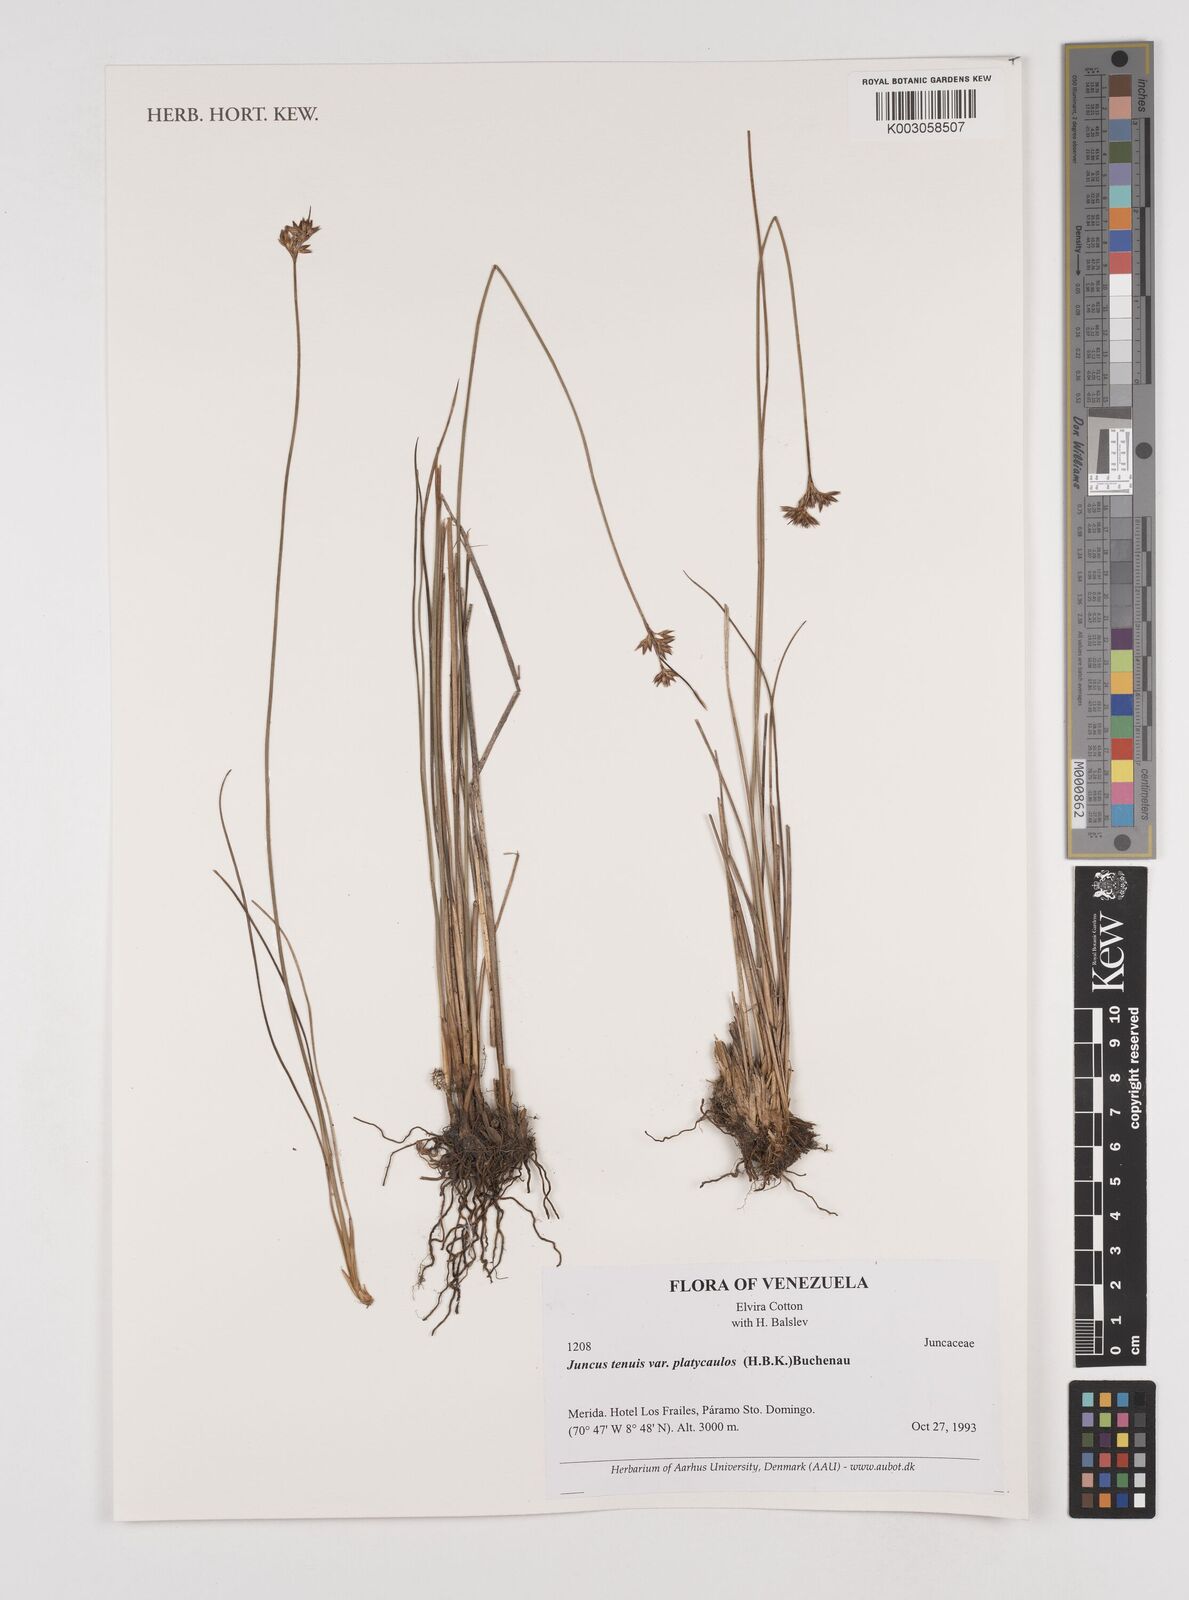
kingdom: Plantae
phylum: Tracheophyta
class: Liliopsida
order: Poales
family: Juncaceae
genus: Juncus
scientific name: Juncus dudleyi
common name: Dudley's rush
